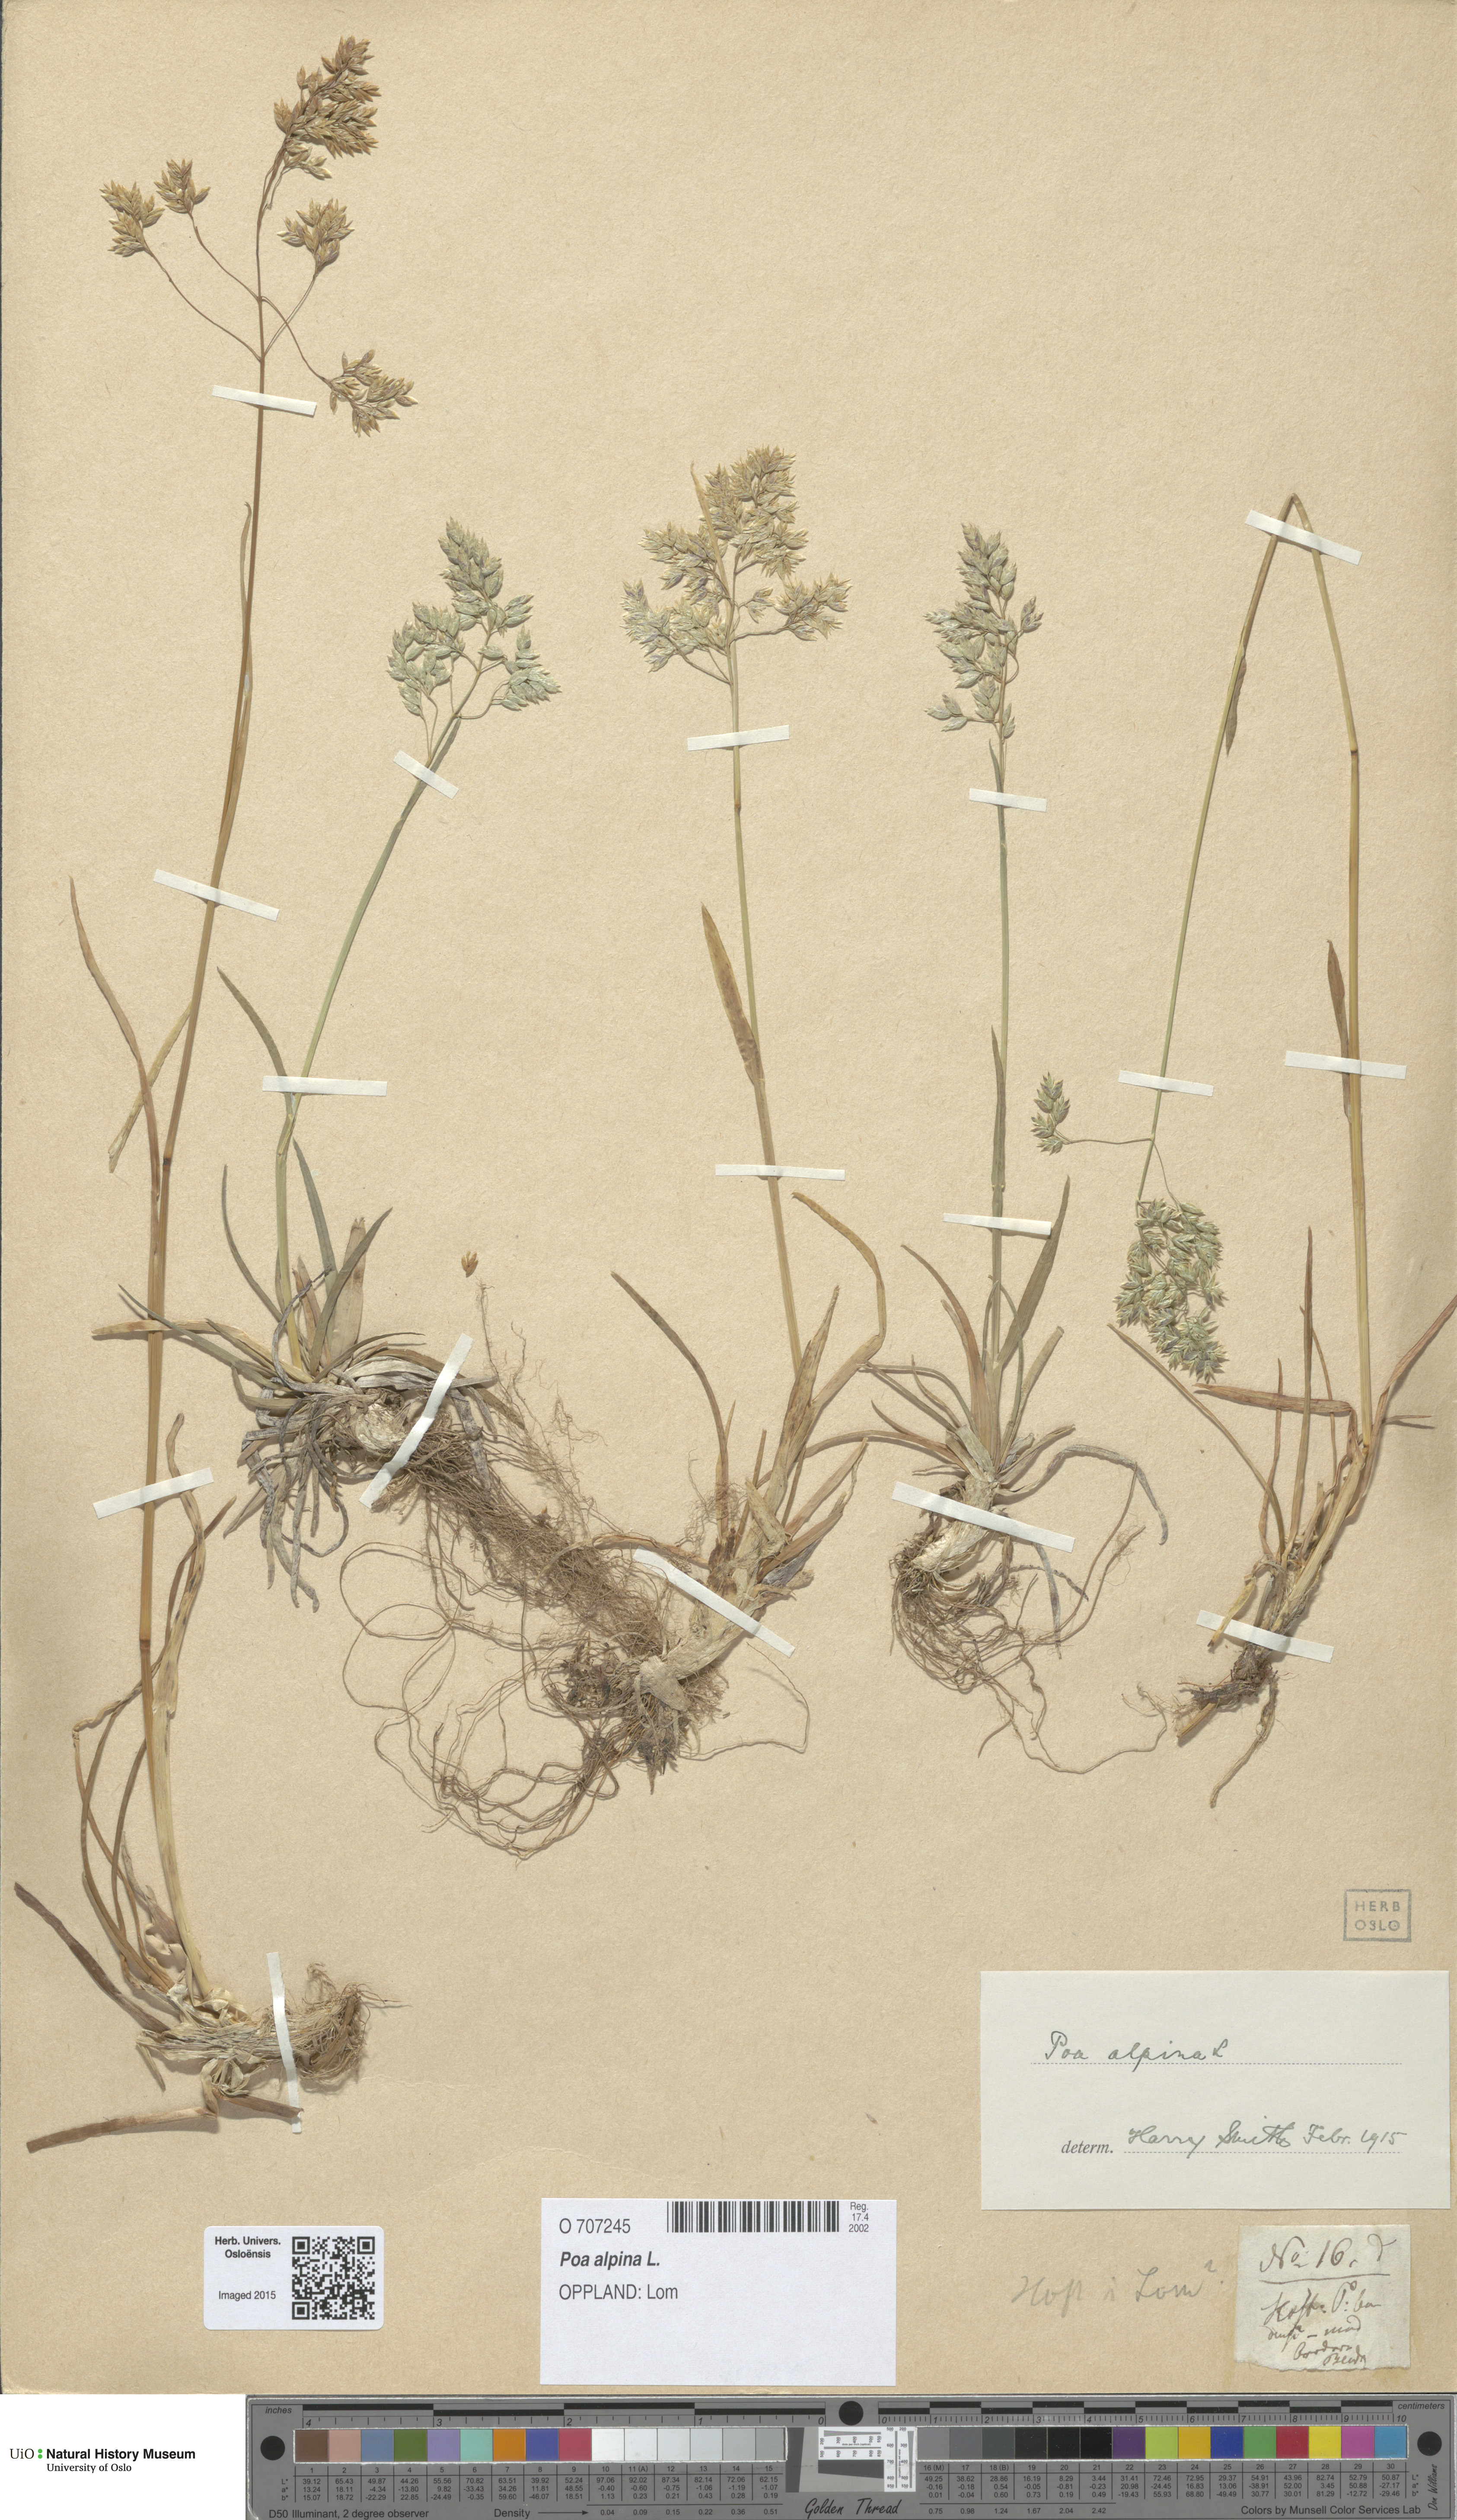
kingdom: Plantae
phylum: Tracheophyta
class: Liliopsida
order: Poales
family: Poaceae
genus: Poa
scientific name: Poa alpina
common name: Alpine bluegrass
